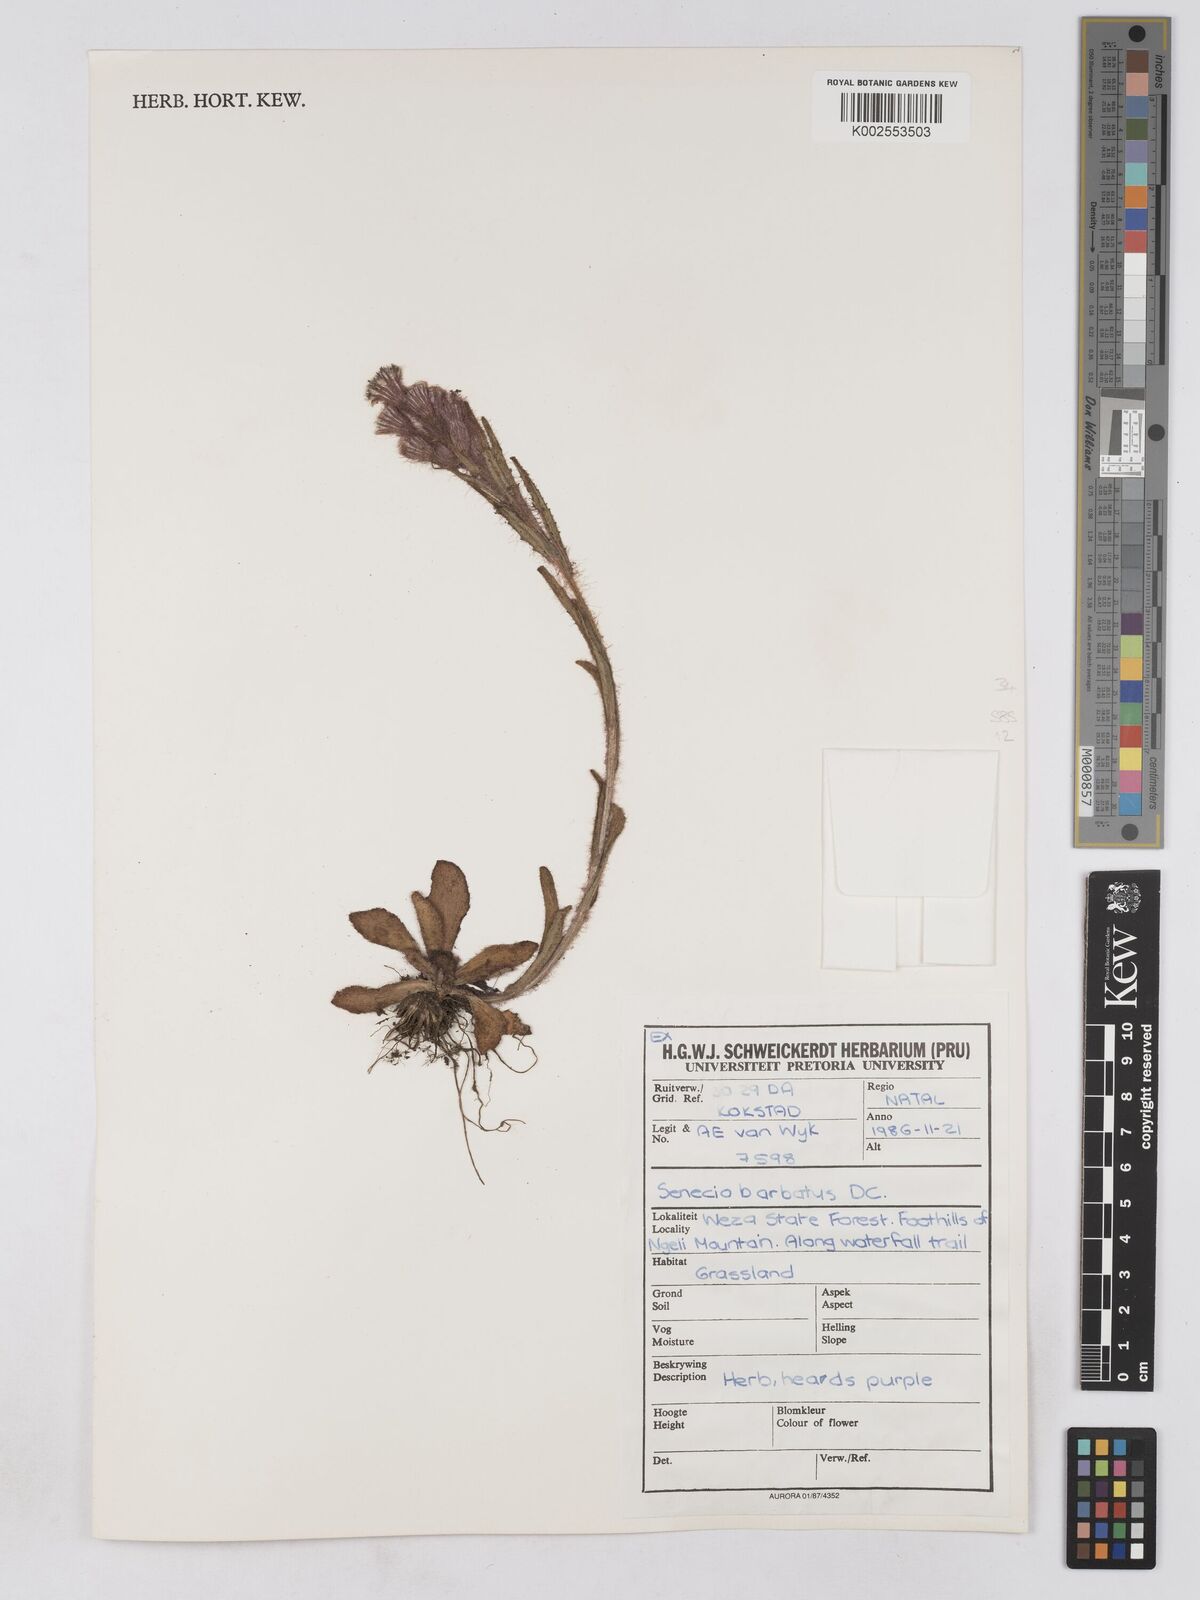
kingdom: Plantae
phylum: Tracheophyta
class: Magnoliopsida
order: Asterales
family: Asteraceae
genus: Senecio
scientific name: Senecio barbatus
